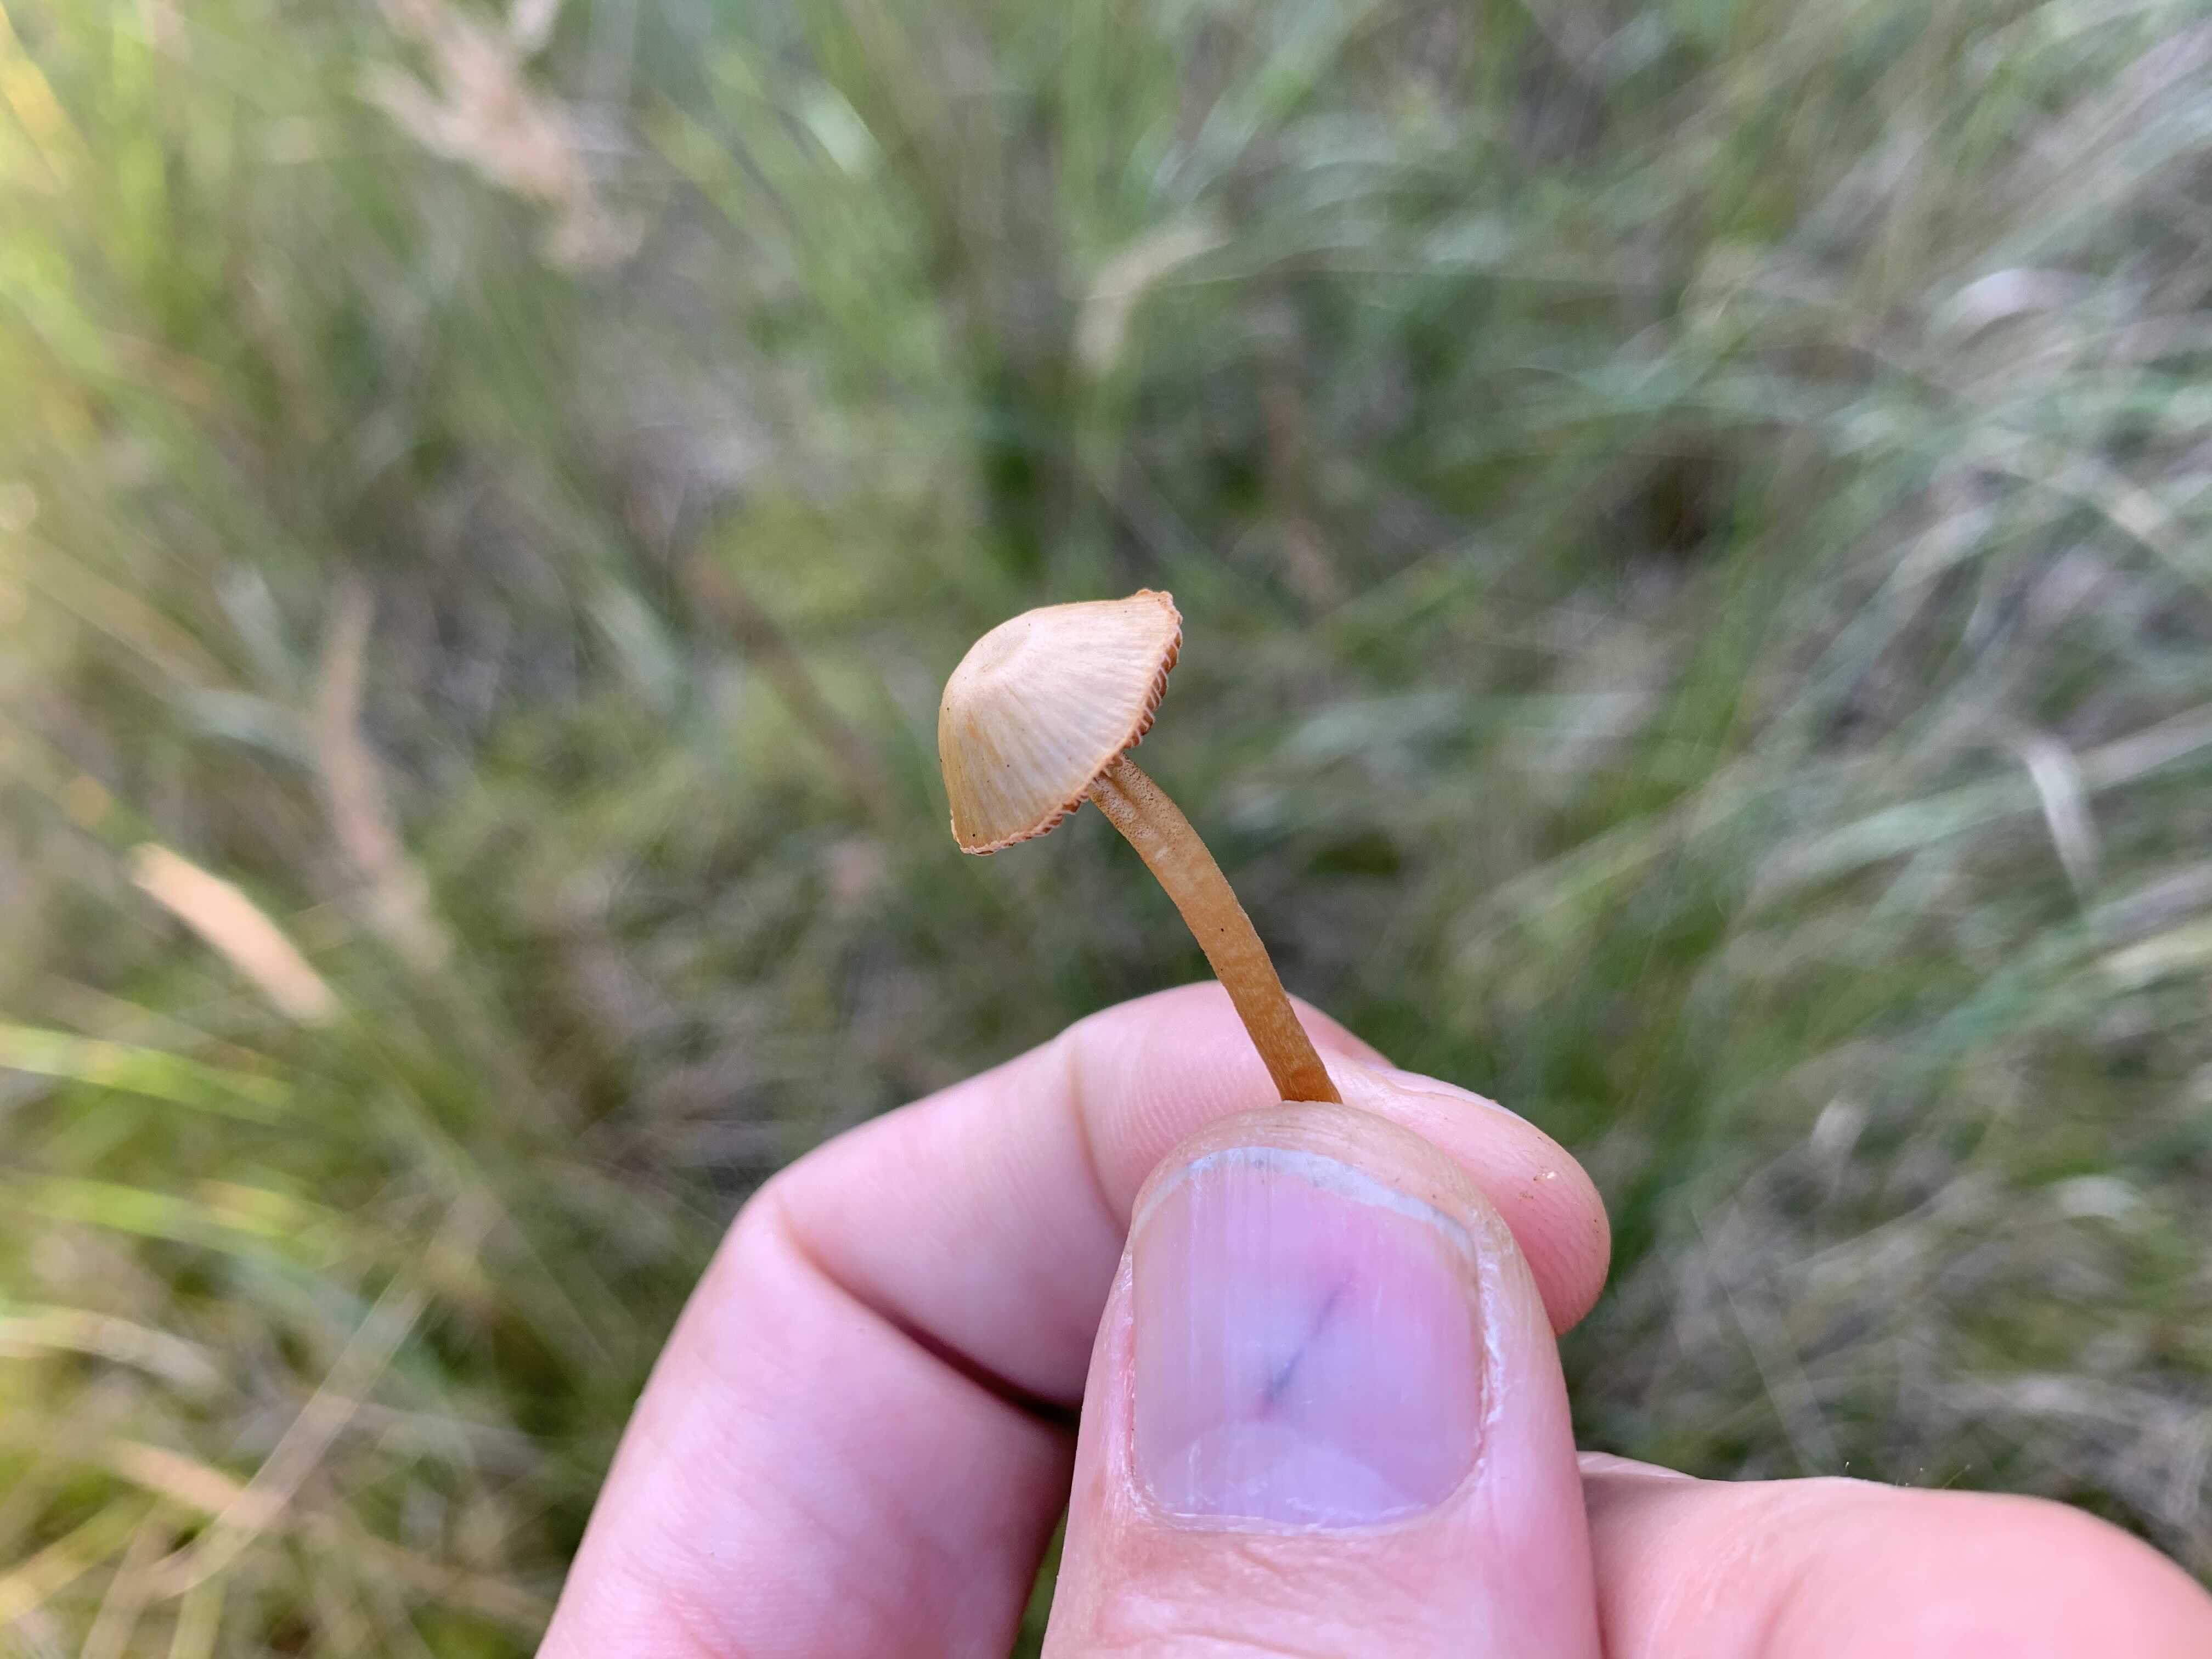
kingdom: Fungi
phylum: Basidiomycota
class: Agaricomycetes
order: Agaricales
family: Hymenogastraceae
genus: Galerina
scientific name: Galerina
